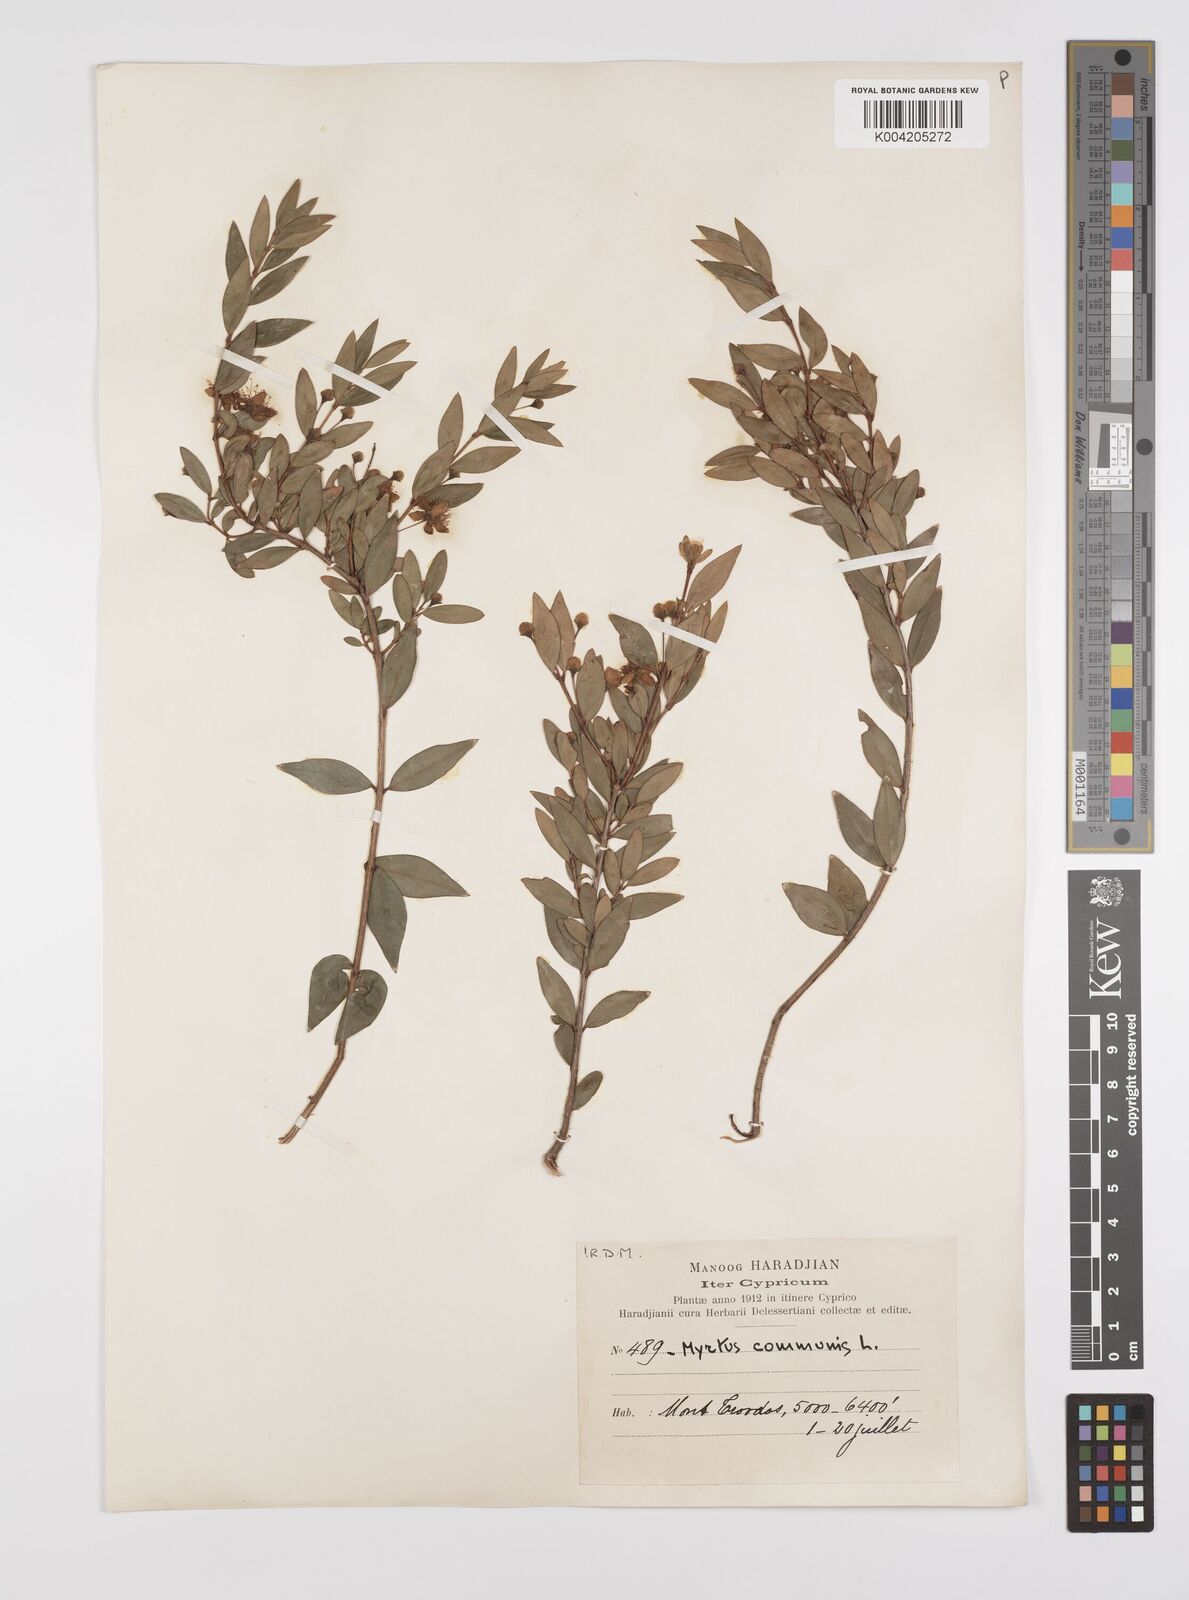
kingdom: Plantae
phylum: Tracheophyta
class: Magnoliopsida
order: Myrtales
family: Myrtaceae
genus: Myrtus
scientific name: Myrtus communis
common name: Myrtle
